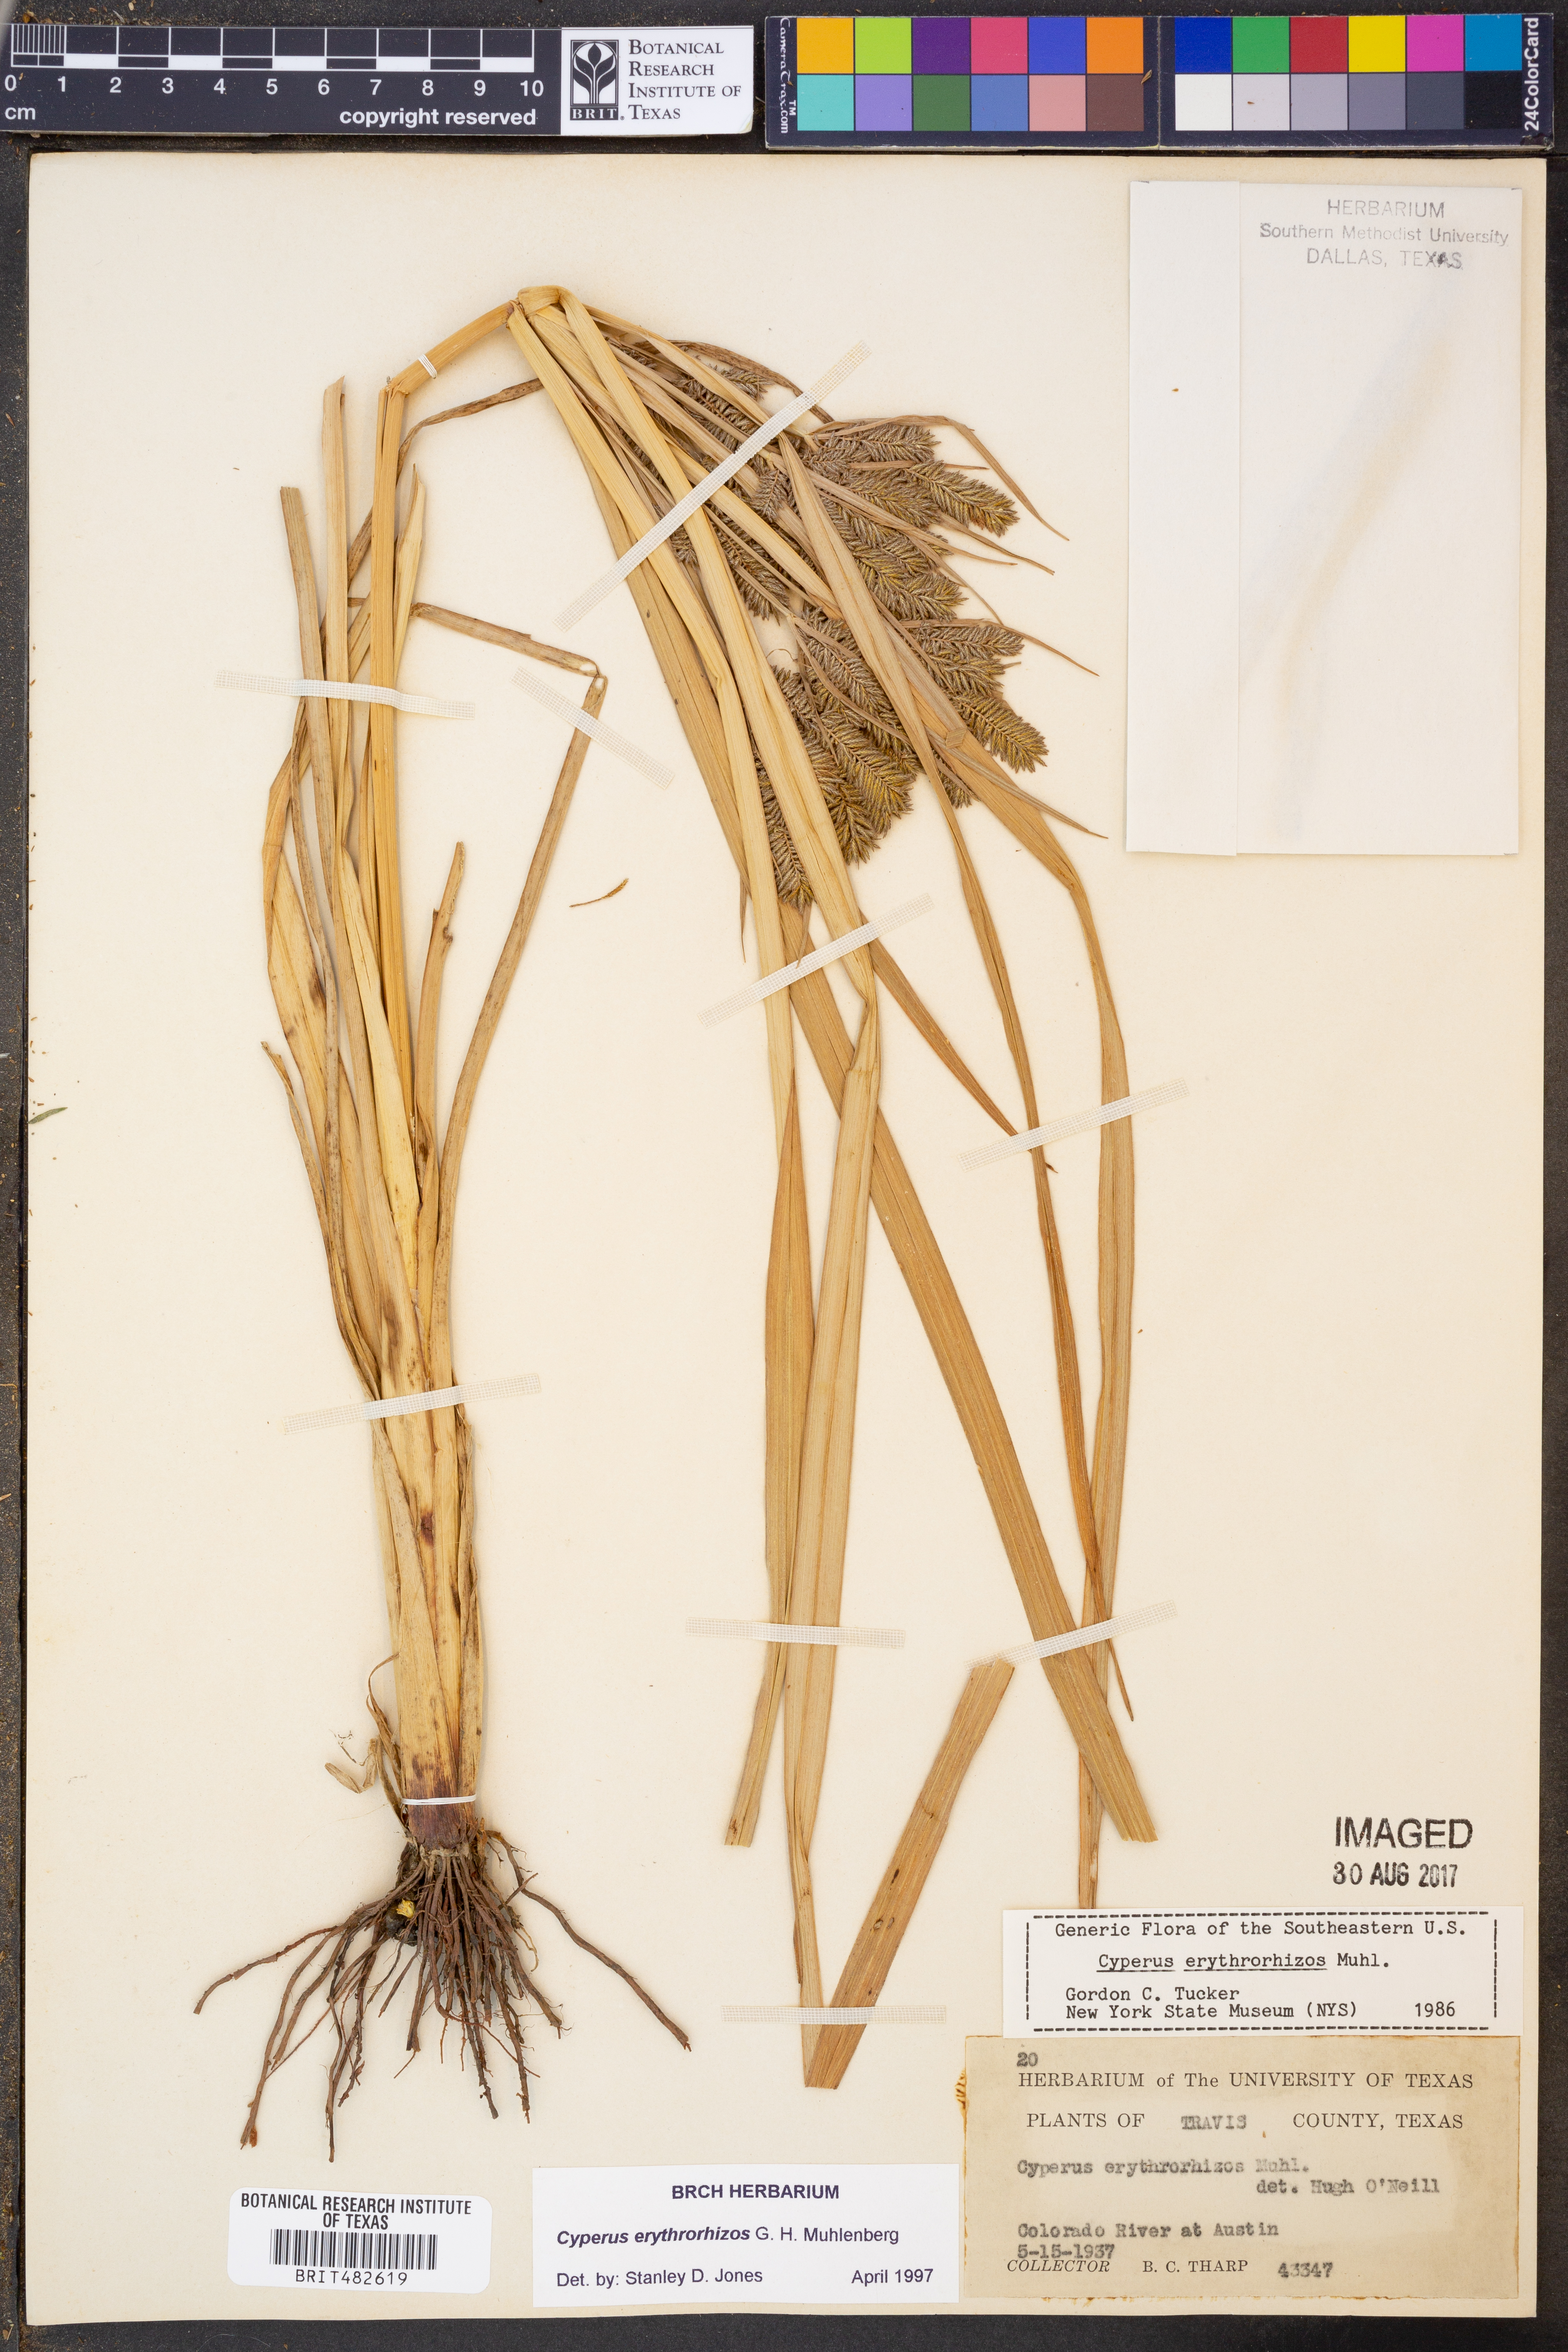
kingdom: Plantae
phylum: Tracheophyta
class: Liliopsida
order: Poales
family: Cyperaceae
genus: Cyperus
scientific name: Cyperus erythrorhizos
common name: Red-root flat sedge
